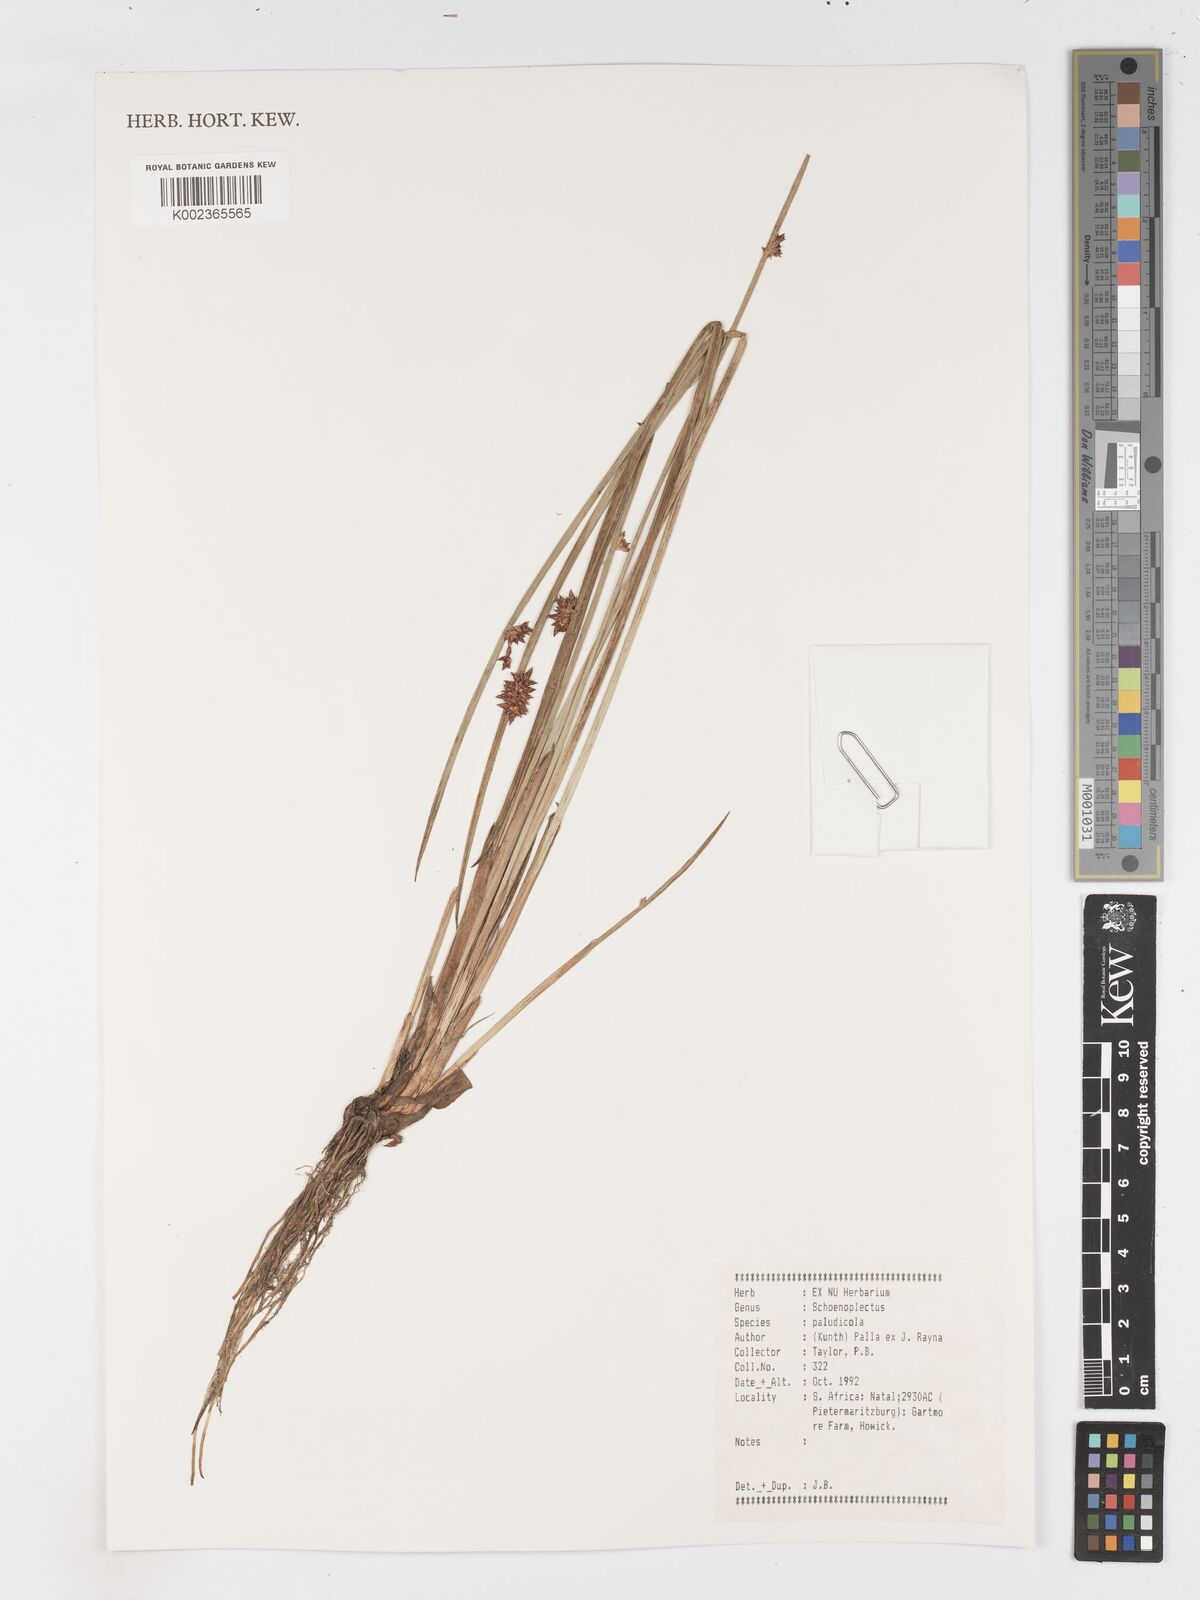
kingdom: Plantae
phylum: Tracheophyta
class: Liliopsida
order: Poales
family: Cyperaceae
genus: Schoenoplectiella
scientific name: Schoenoplectiella paludicola
